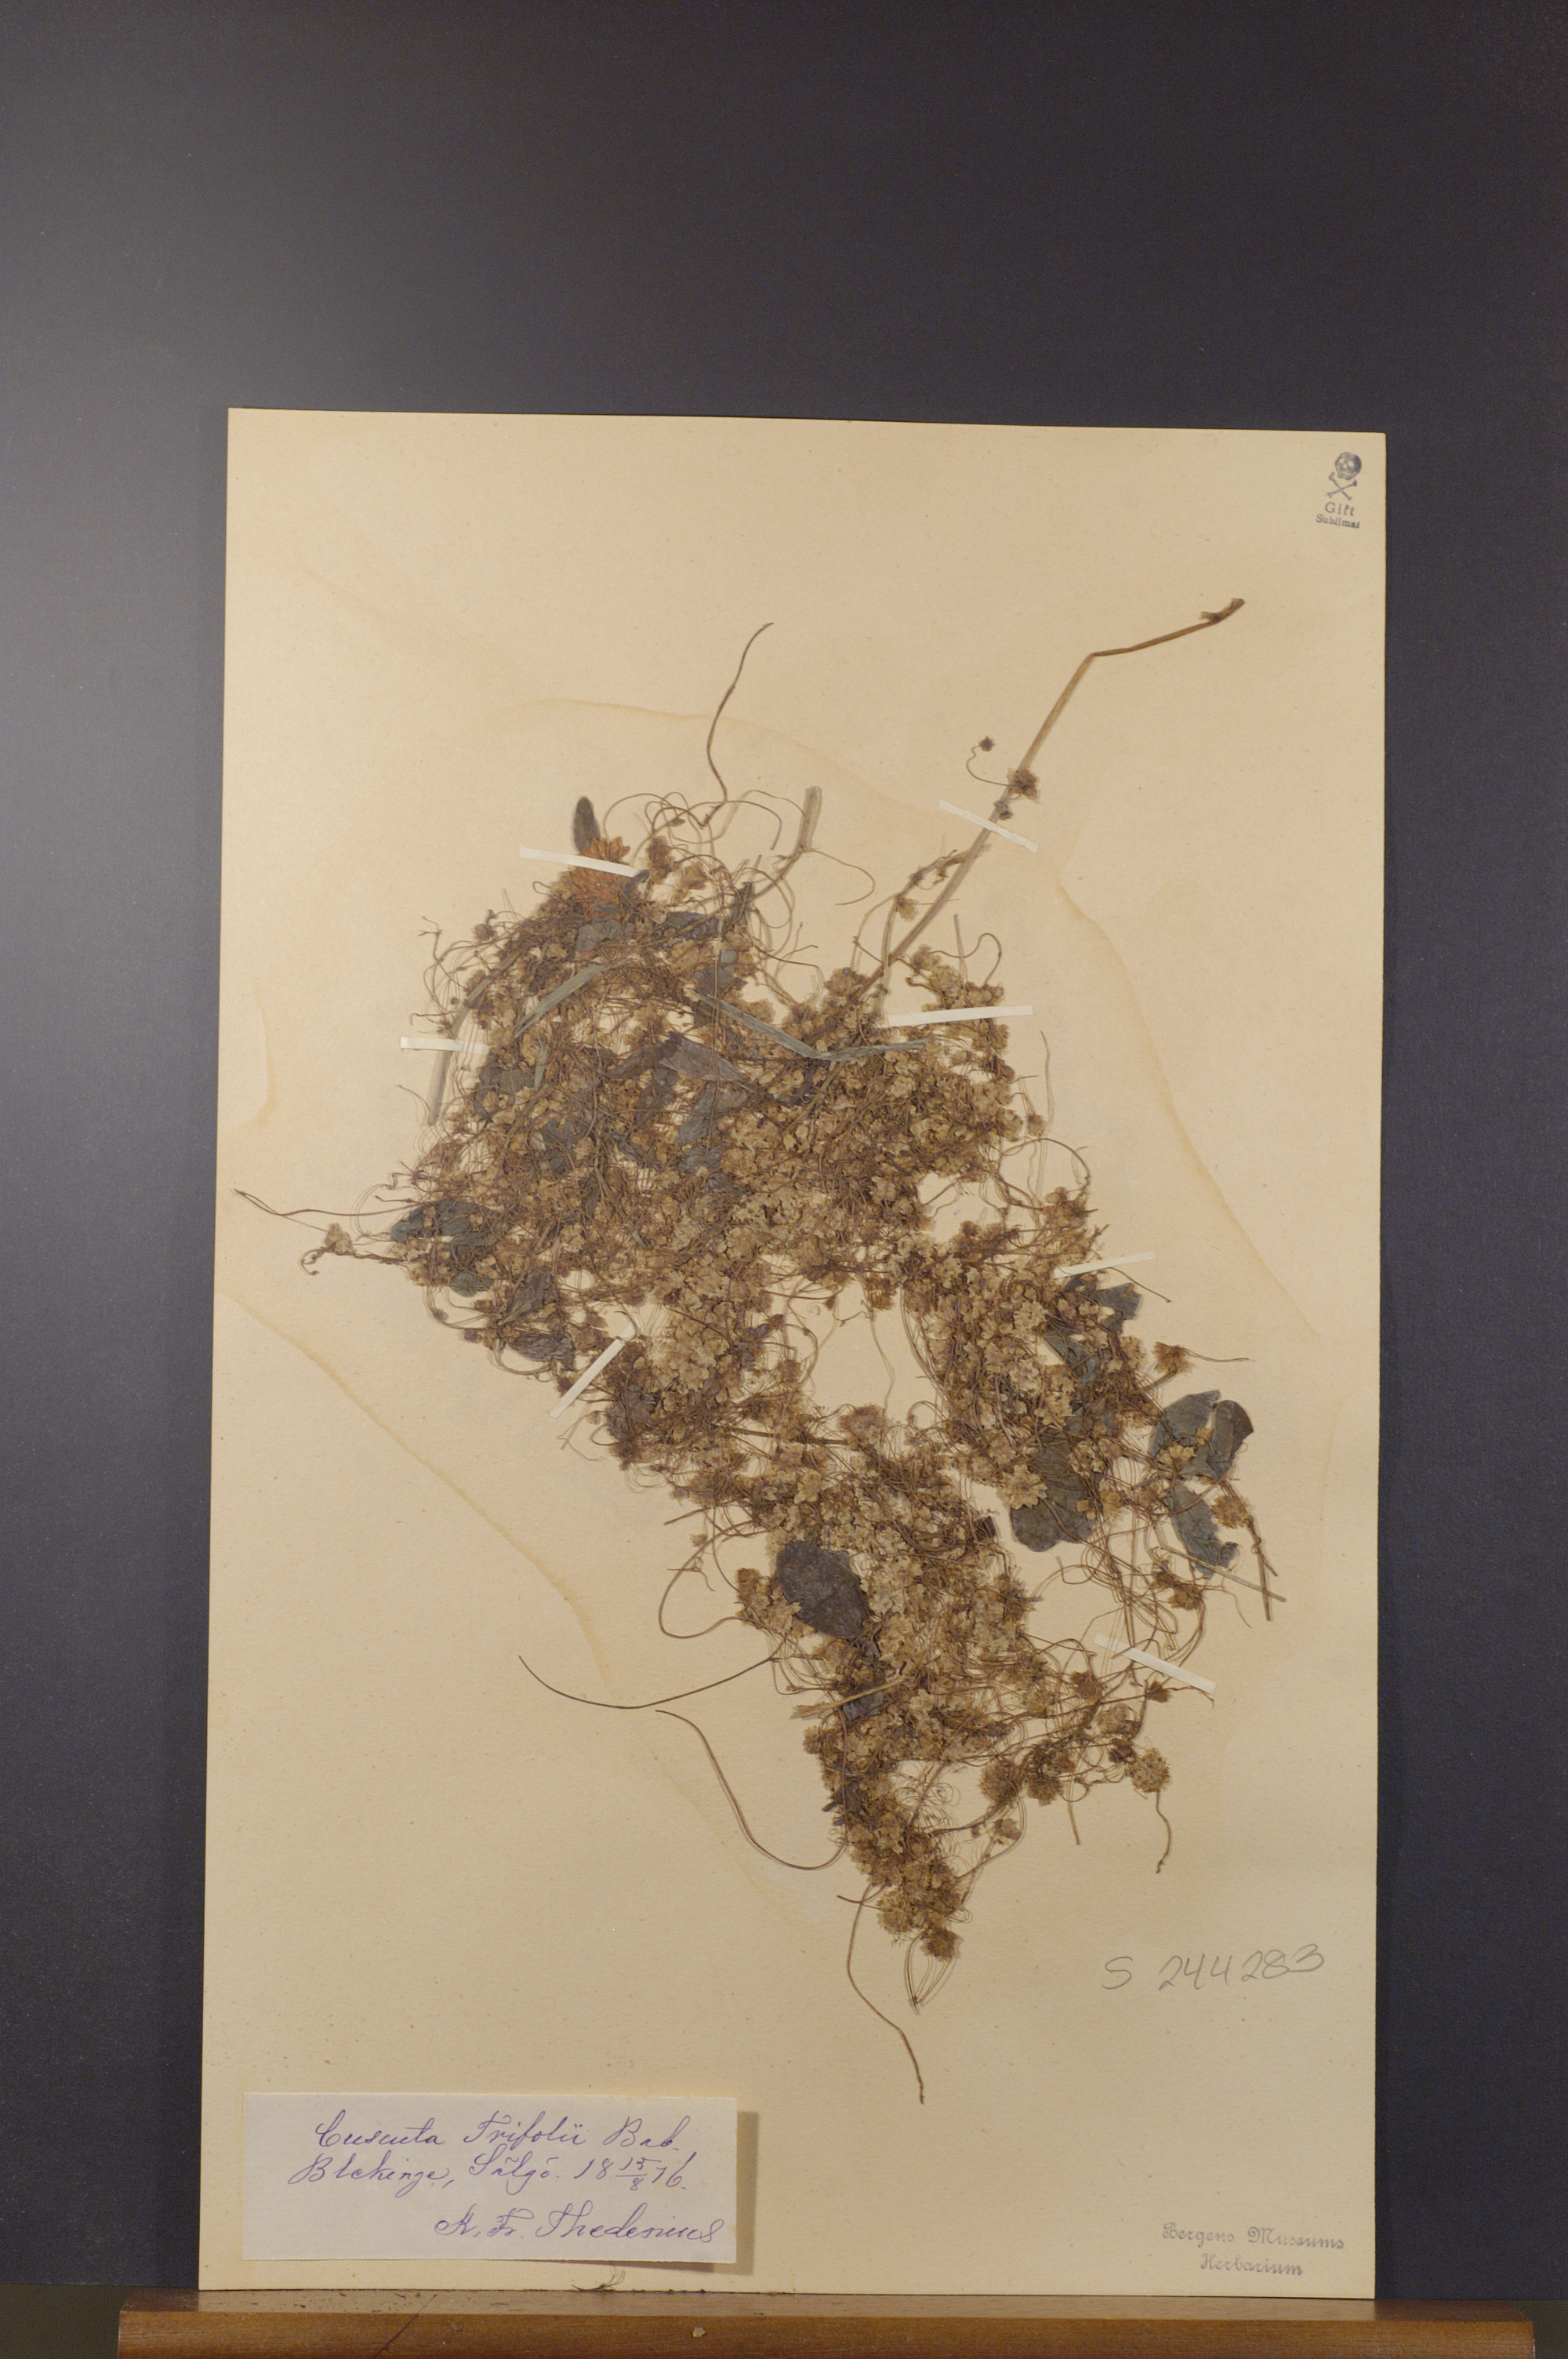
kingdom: Plantae
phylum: Tracheophyta
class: Magnoliopsida
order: Solanales
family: Convolvulaceae
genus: Cuscuta
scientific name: Cuscuta epithymum
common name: Clover dodder
